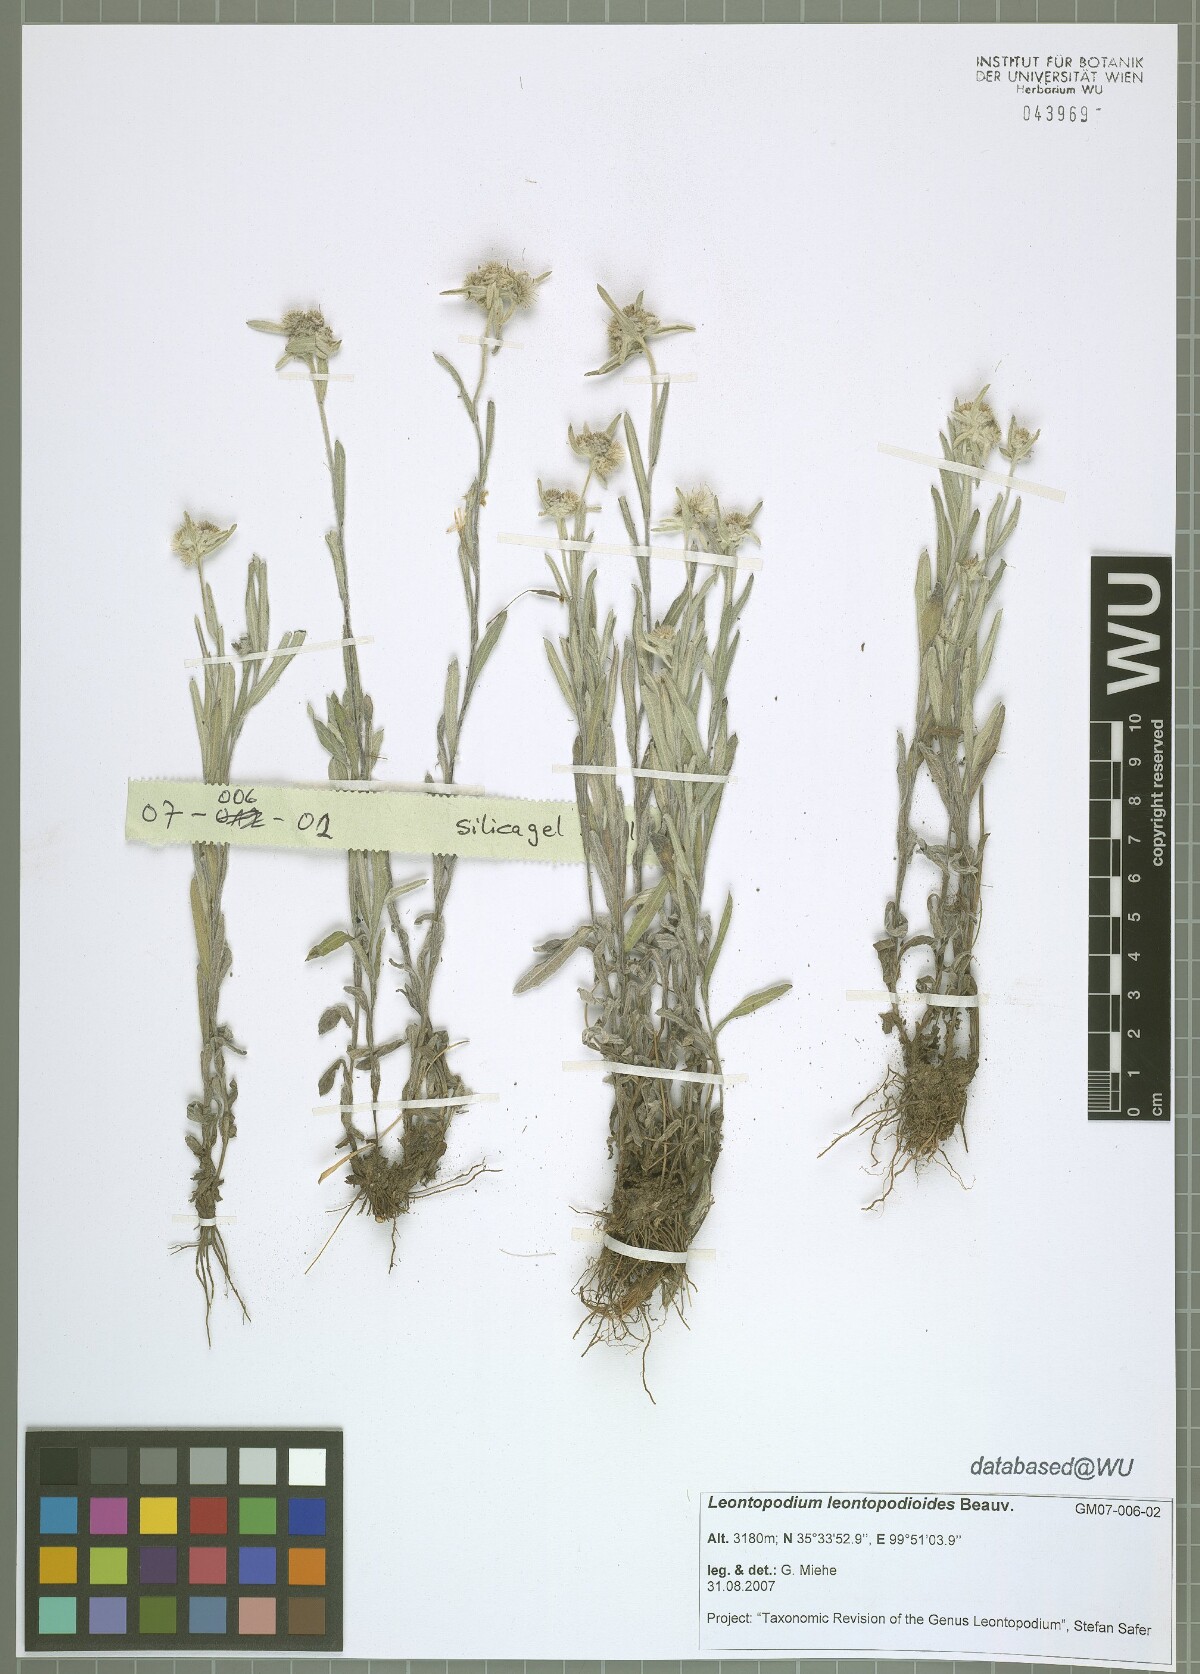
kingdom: Plantae
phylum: Tracheophyta
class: Magnoliopsida
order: Asterales
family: Asteraceae
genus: Leontopodium
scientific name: Leontopodium leontopodioides
